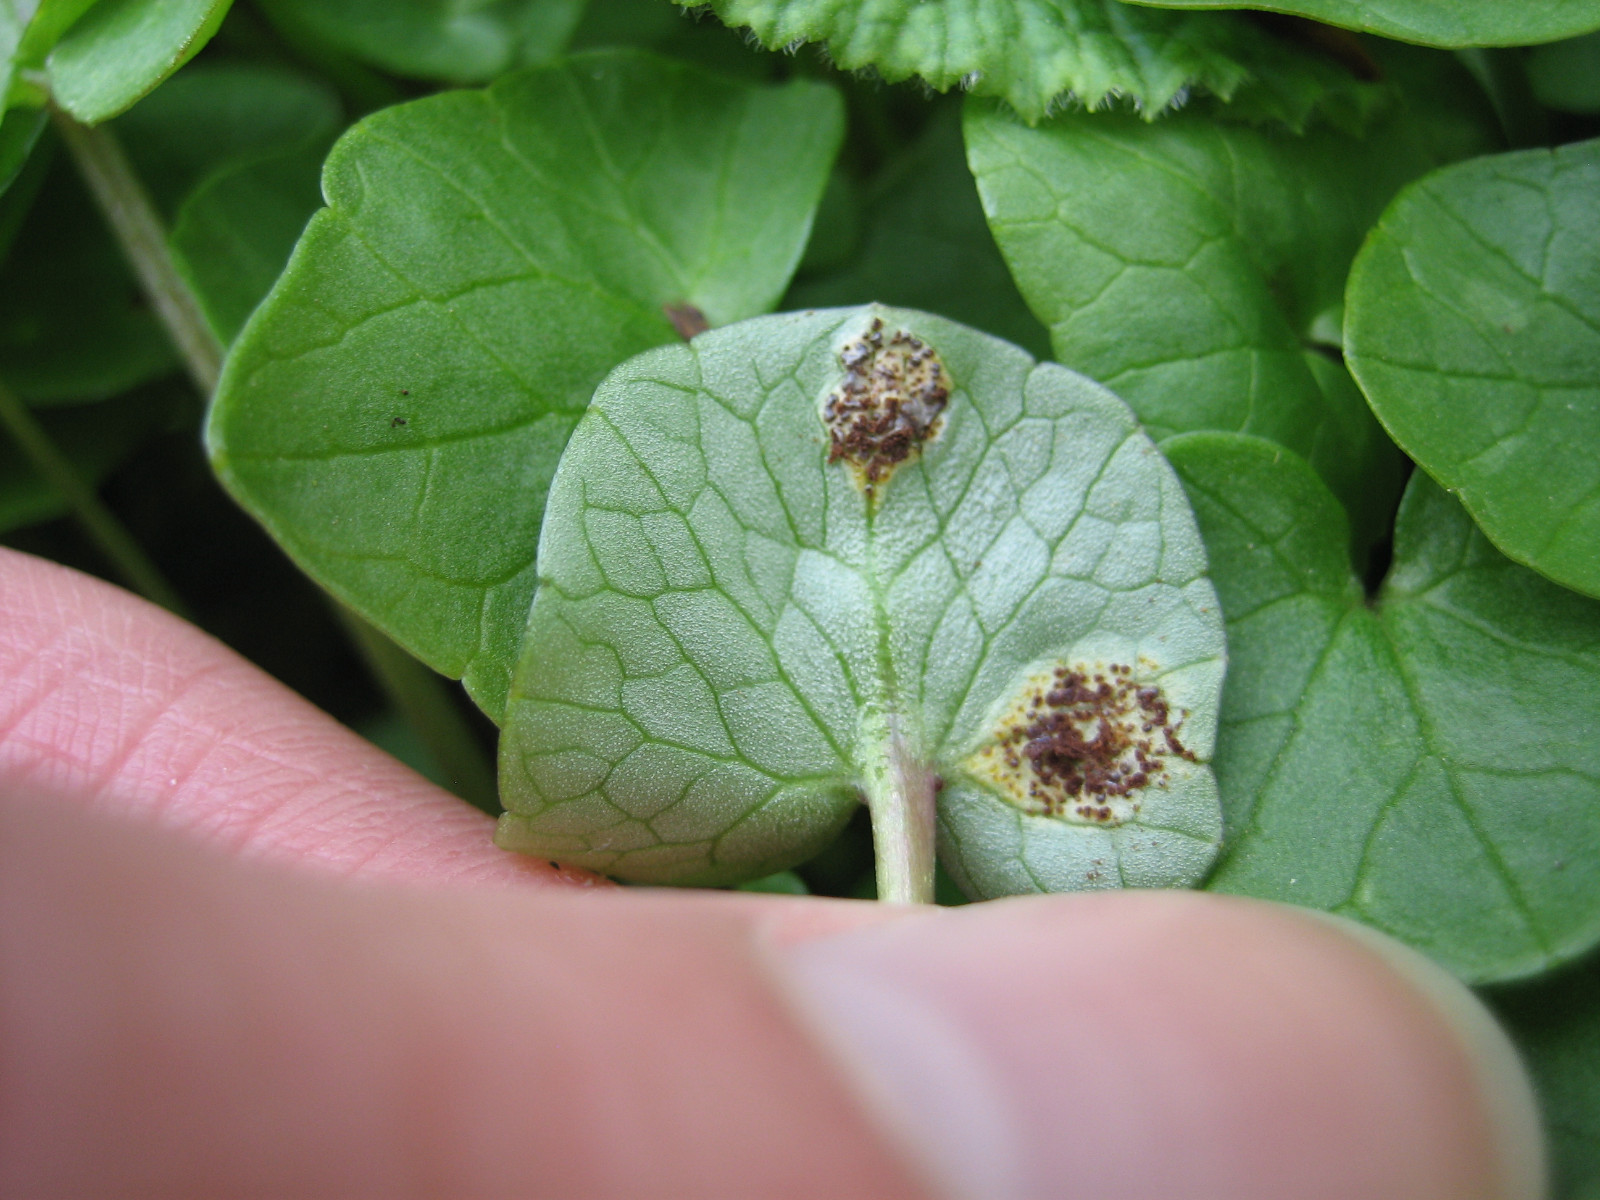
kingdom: Fungi
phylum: Basidiomycota
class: Pucciniomycetes
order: Pucciniales
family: Pucciniaceae
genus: Uromyces
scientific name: Uromyces ficariae
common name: vorterod-encellerust
